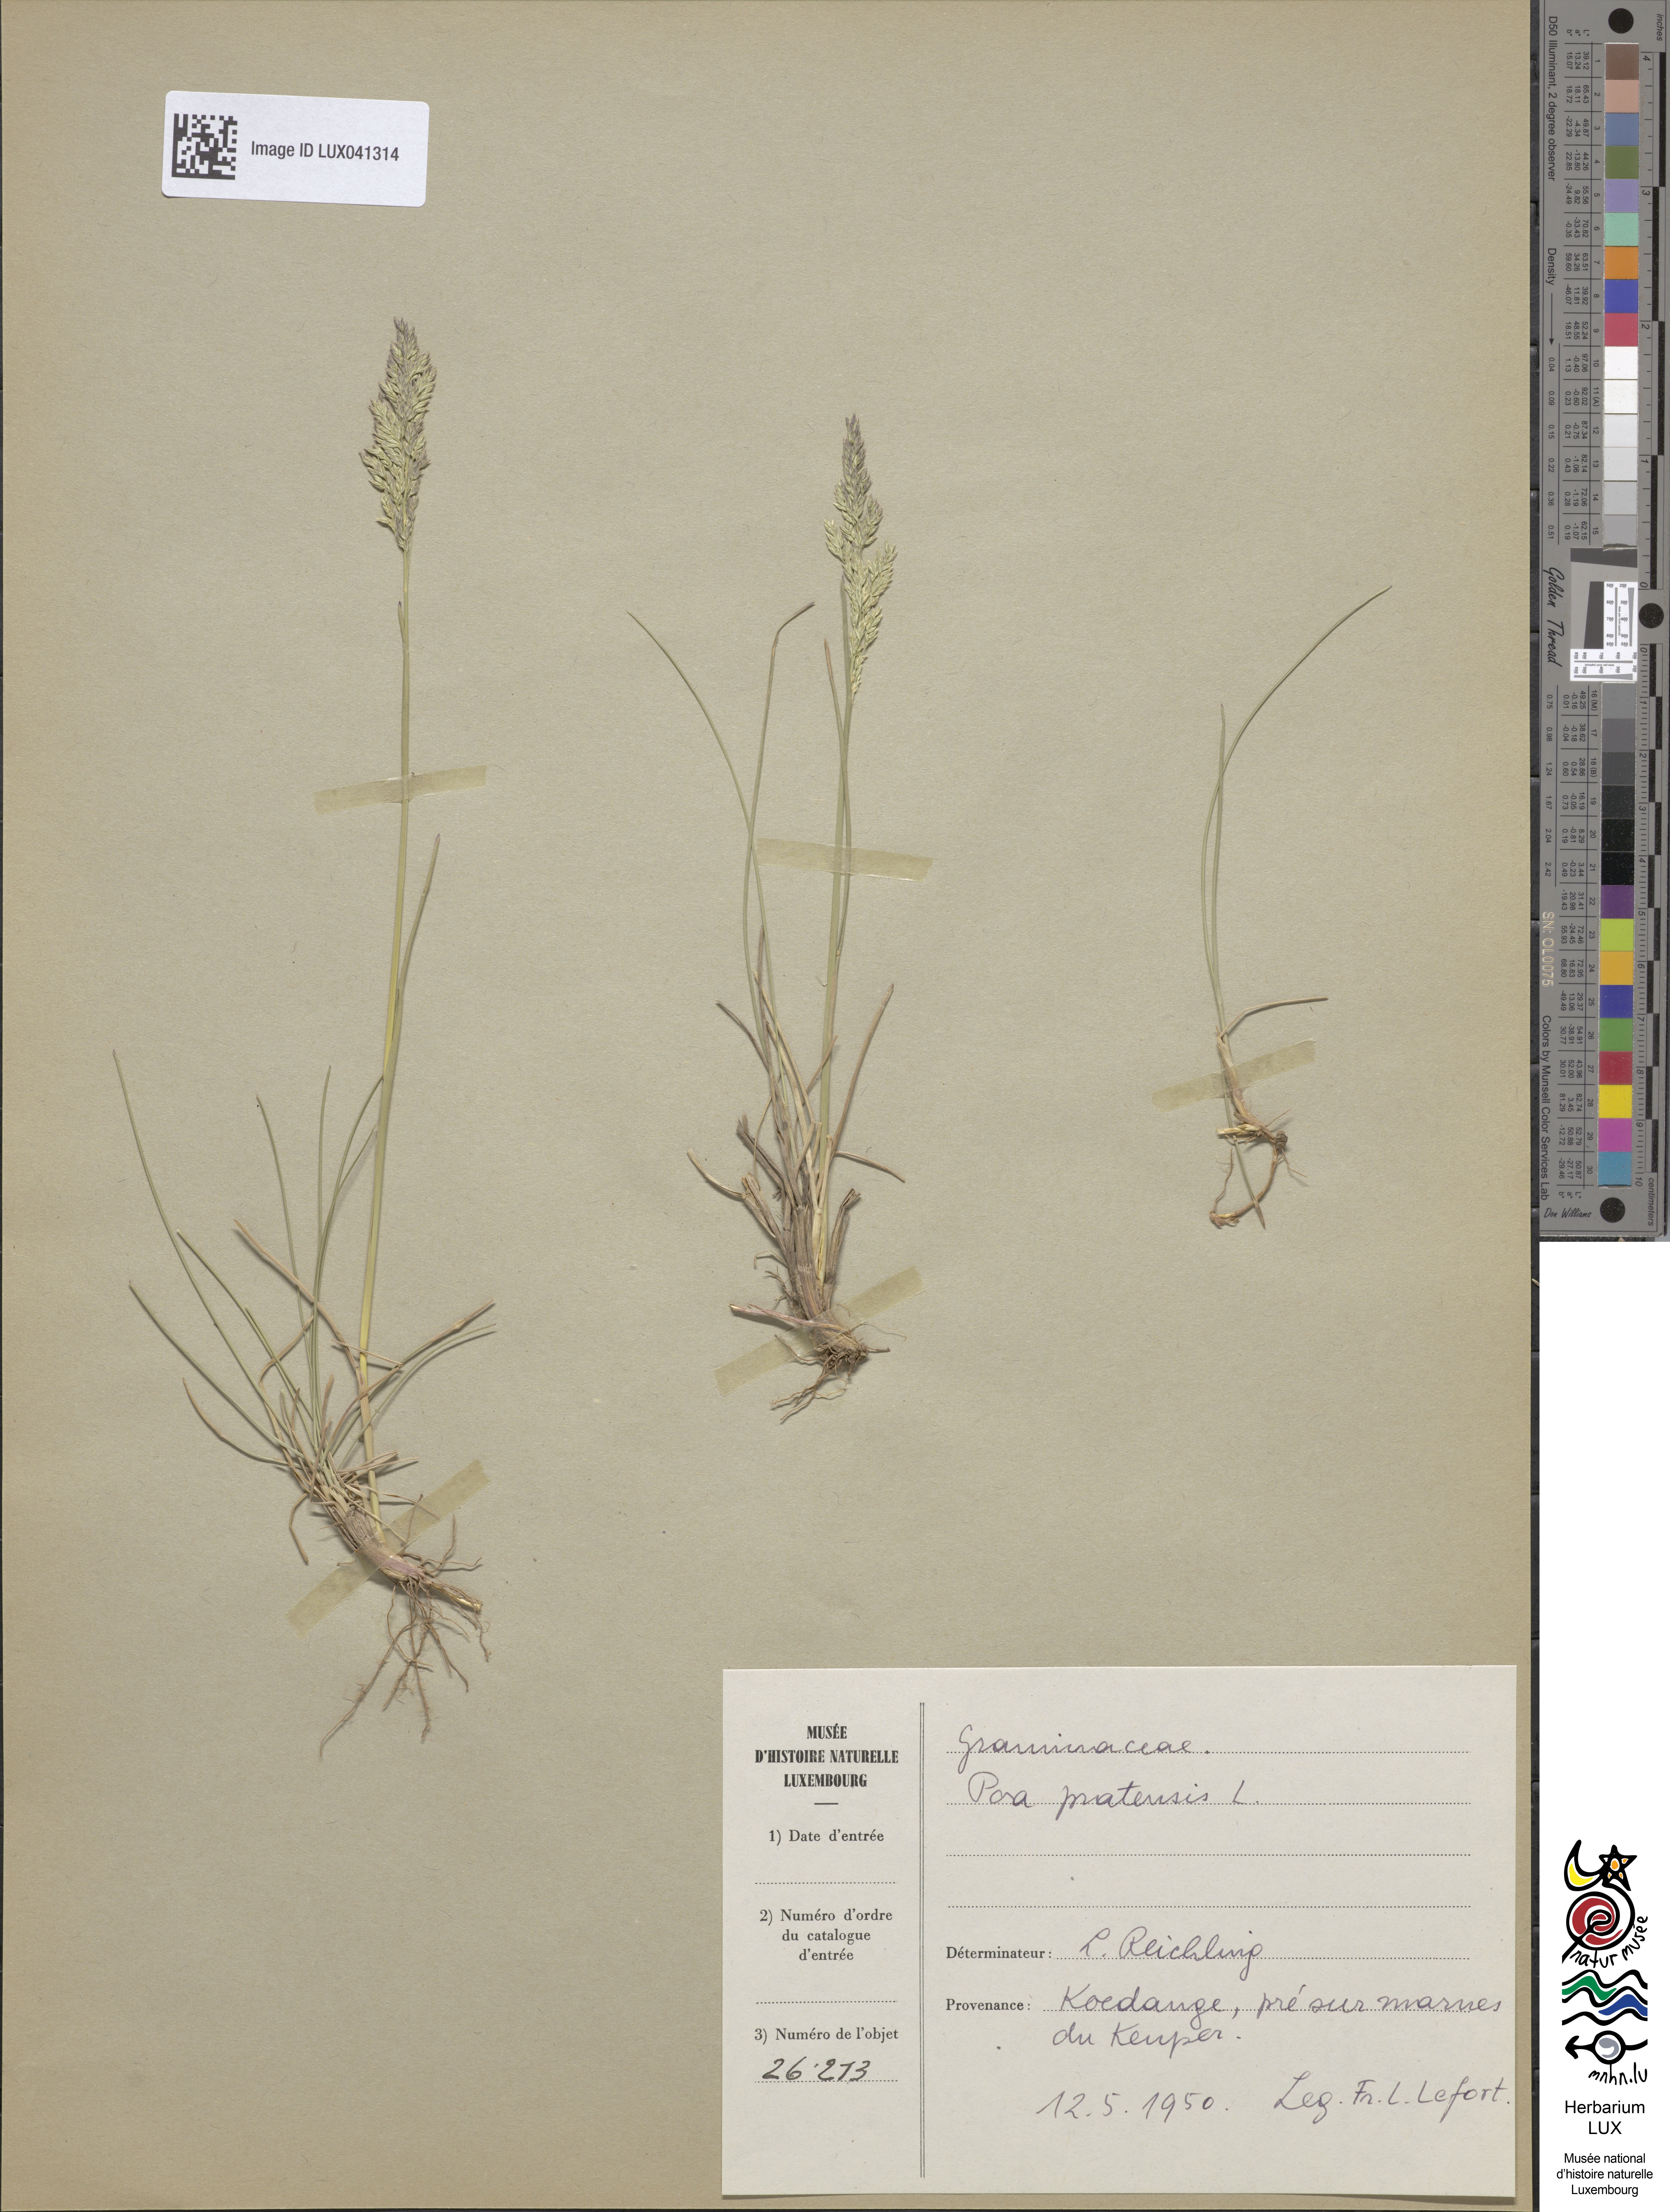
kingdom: Plantae
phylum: Tracheophyta
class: Liliopsida
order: Poales
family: Poaceae
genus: Poa
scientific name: Poa pratensis
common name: Kentucky bluegrass
